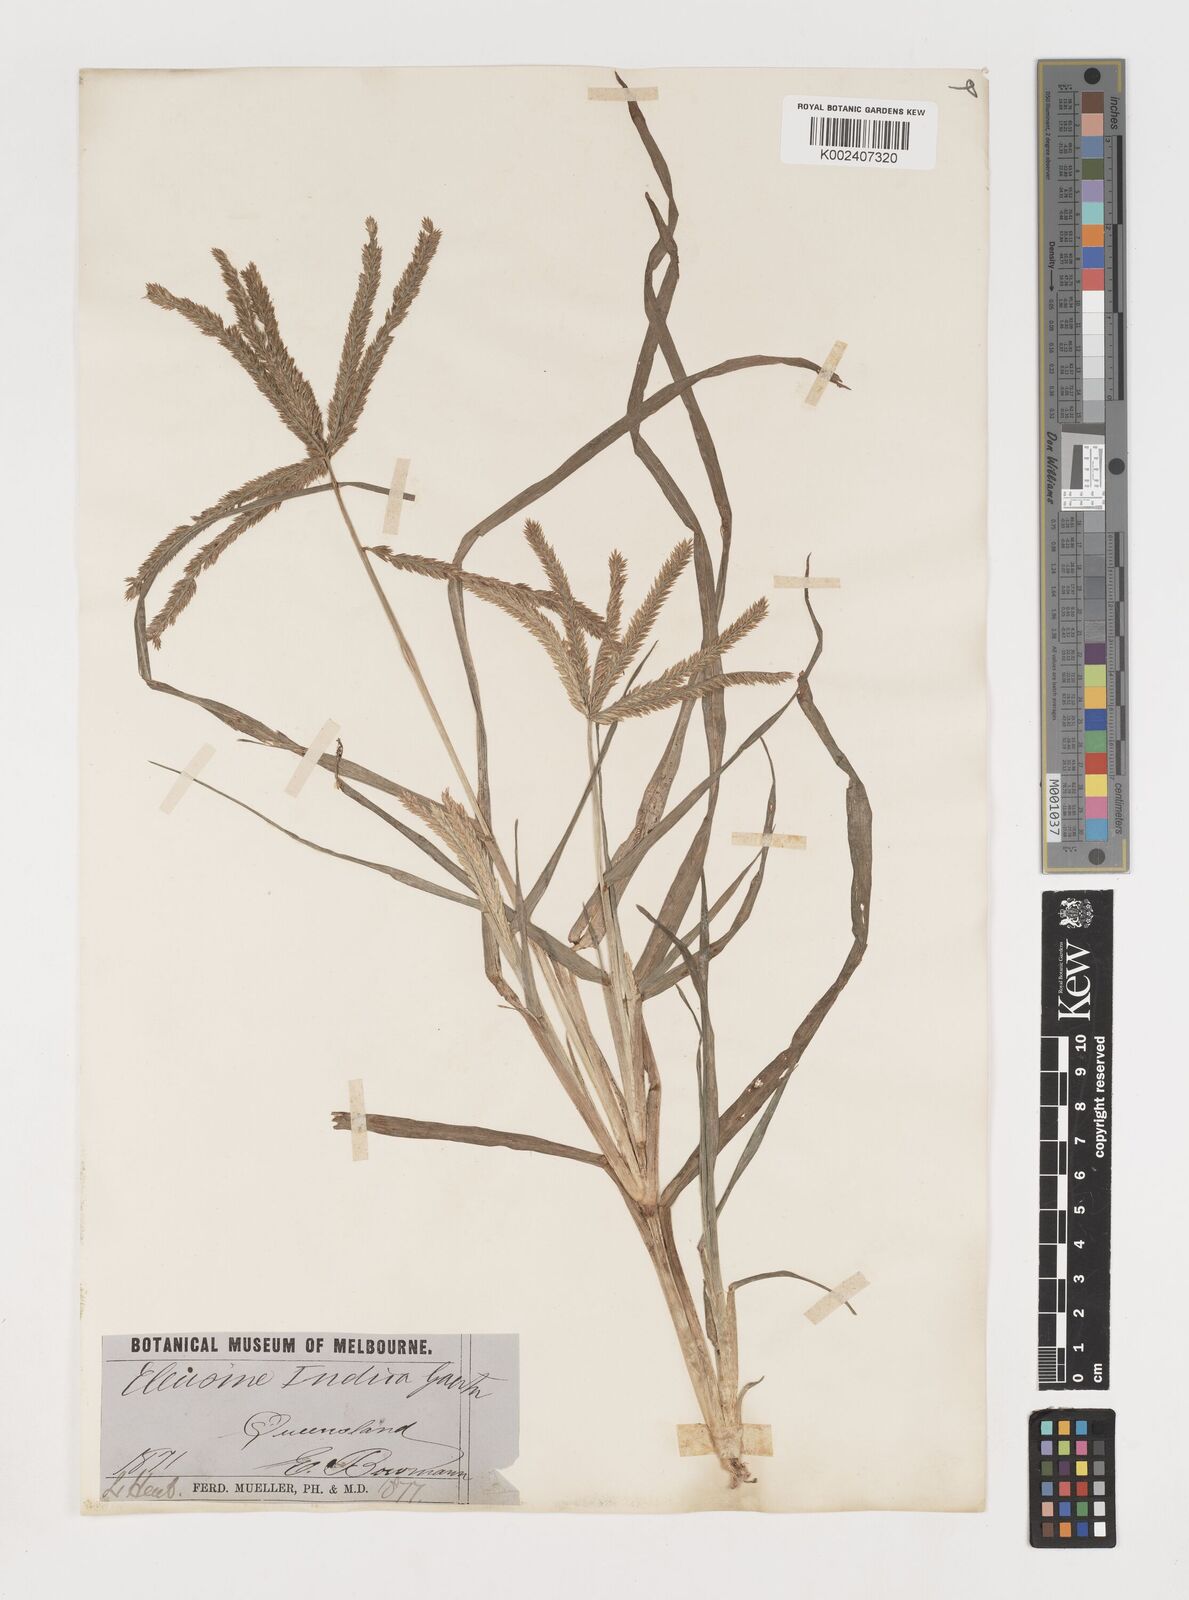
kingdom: Plantae
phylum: Tracheophyta
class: Liliopsida
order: Poales
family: Poaceae
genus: Eleusine
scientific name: Eleusine indica
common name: Yard-grass
